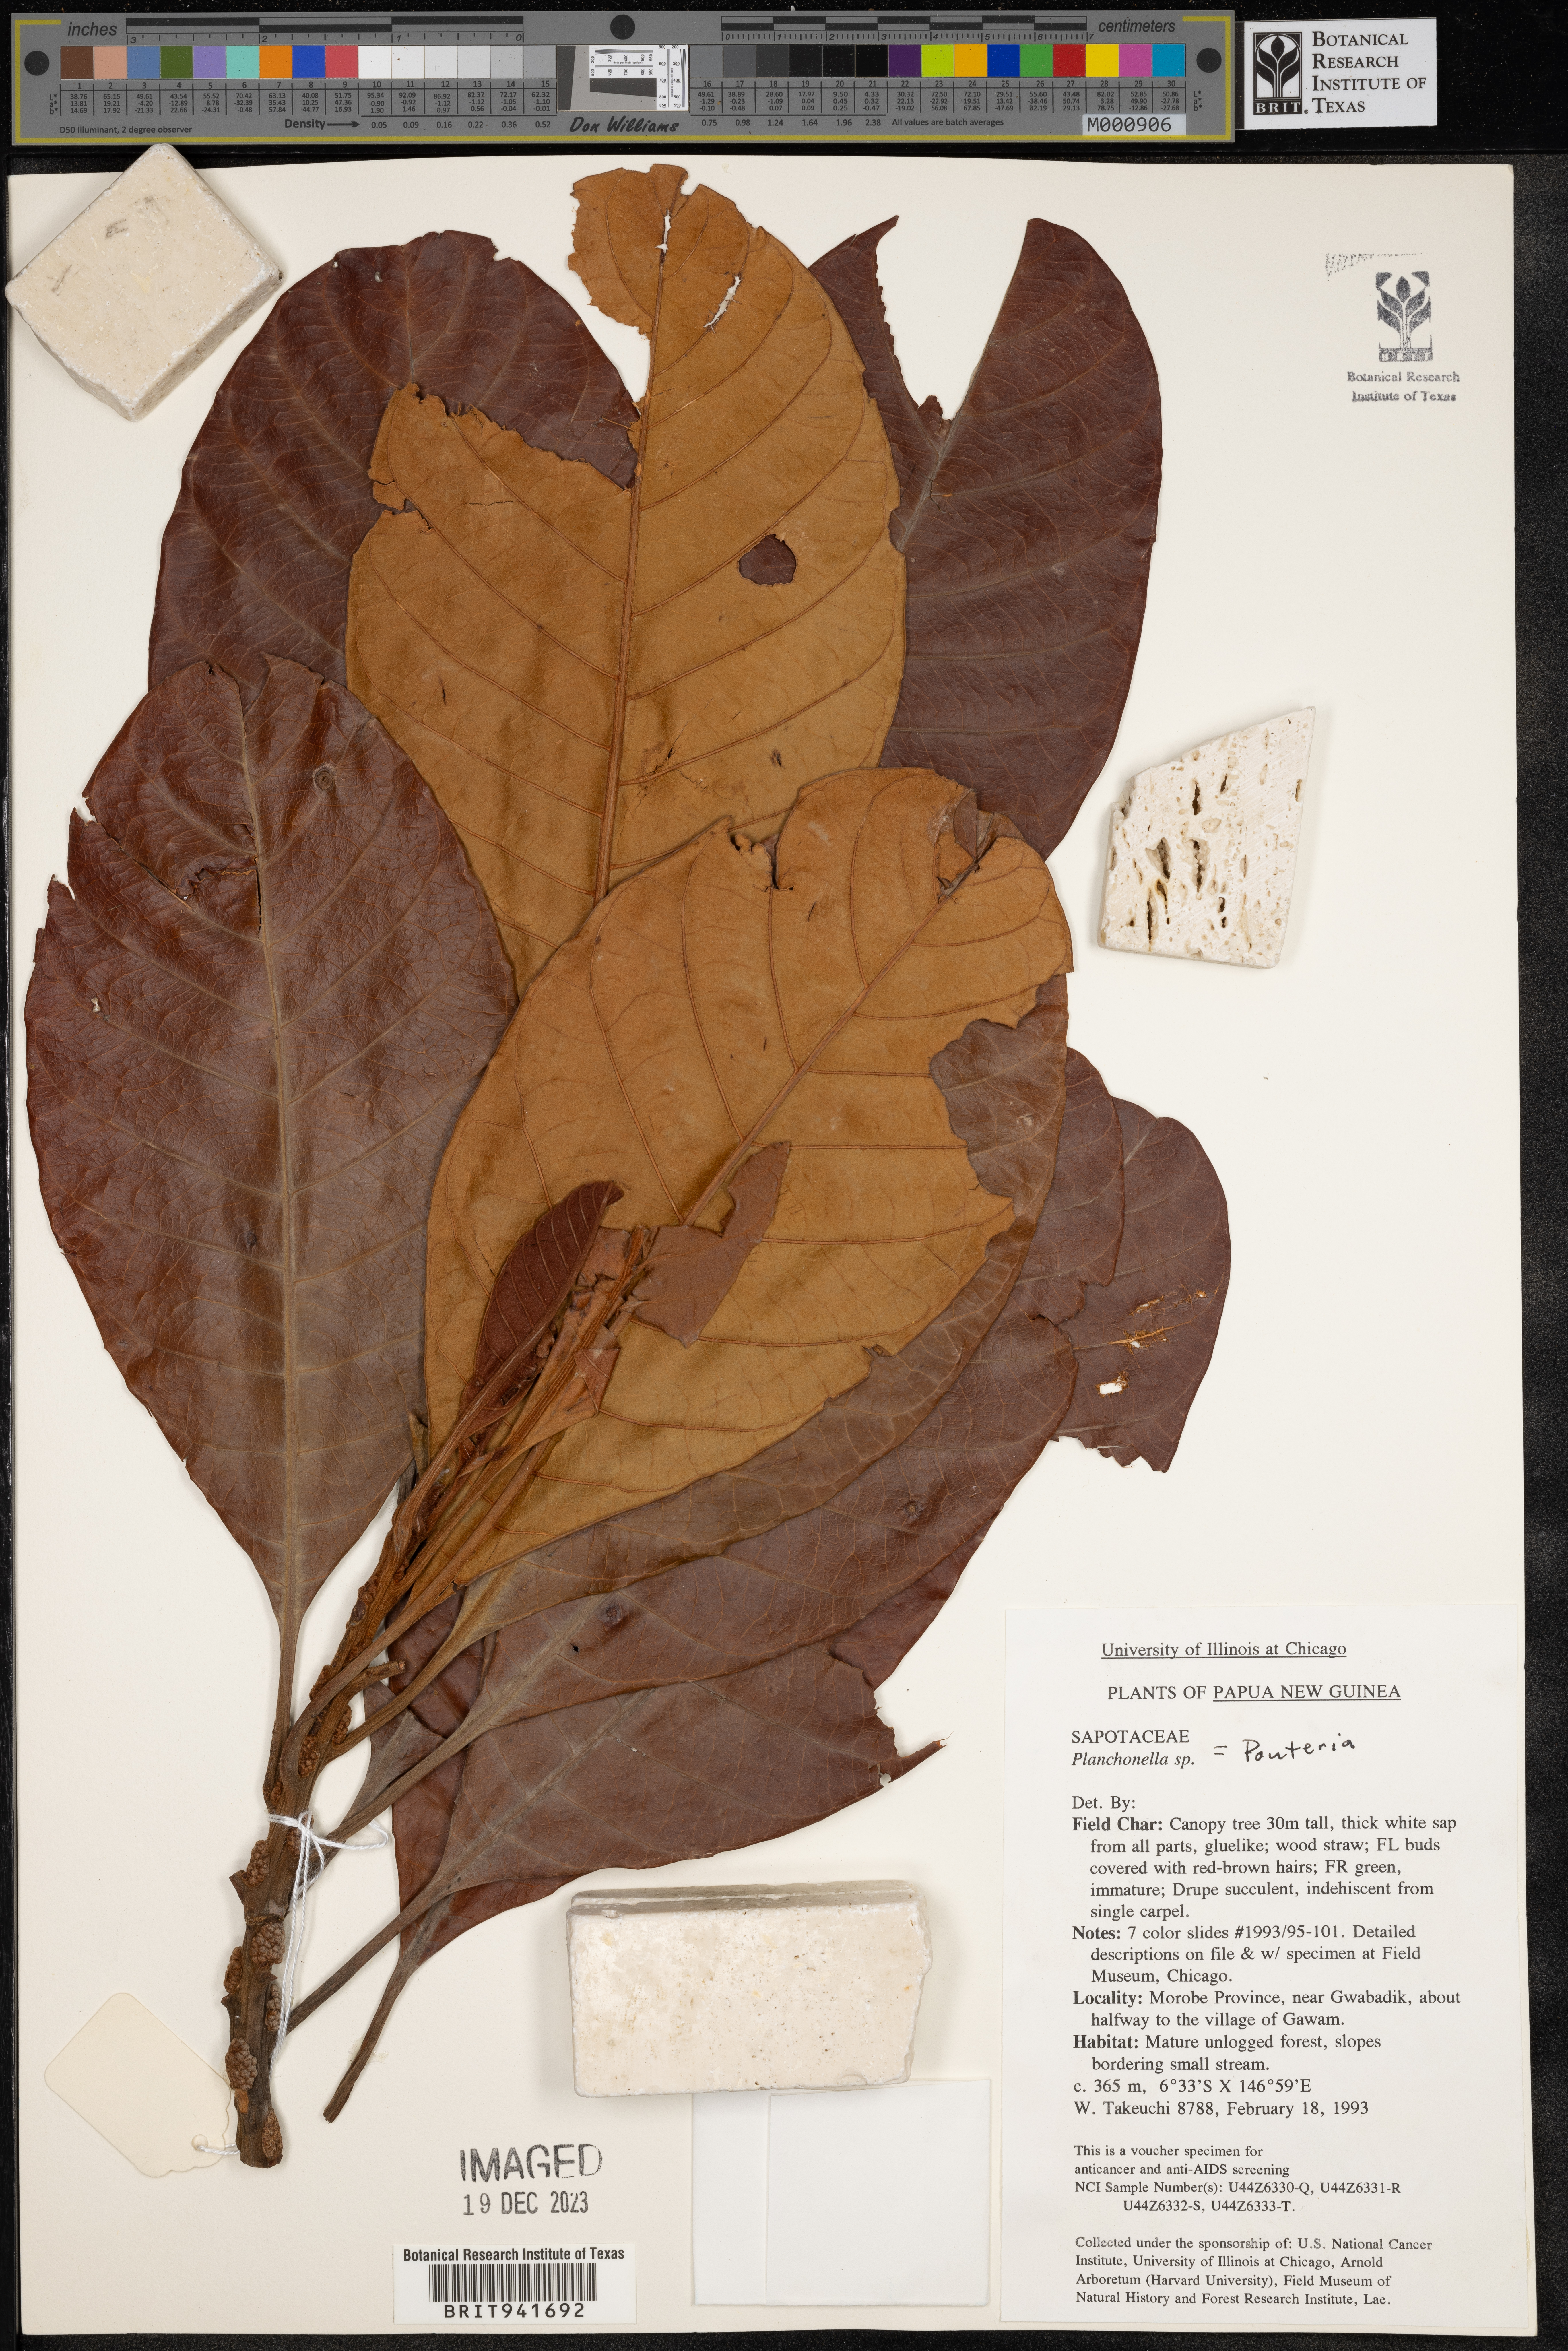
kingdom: Plantae
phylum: Tracheophyta
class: Magnoliopsida
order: Ericales
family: Sapotaceae
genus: Pouteria
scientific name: Pouteria
